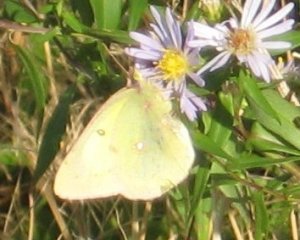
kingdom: Animalia
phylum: Arthropoda
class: Insecta
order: Lepidoptera
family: Pieridae
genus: Colias
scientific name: Colias philodice
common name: Clouded Sulphur
